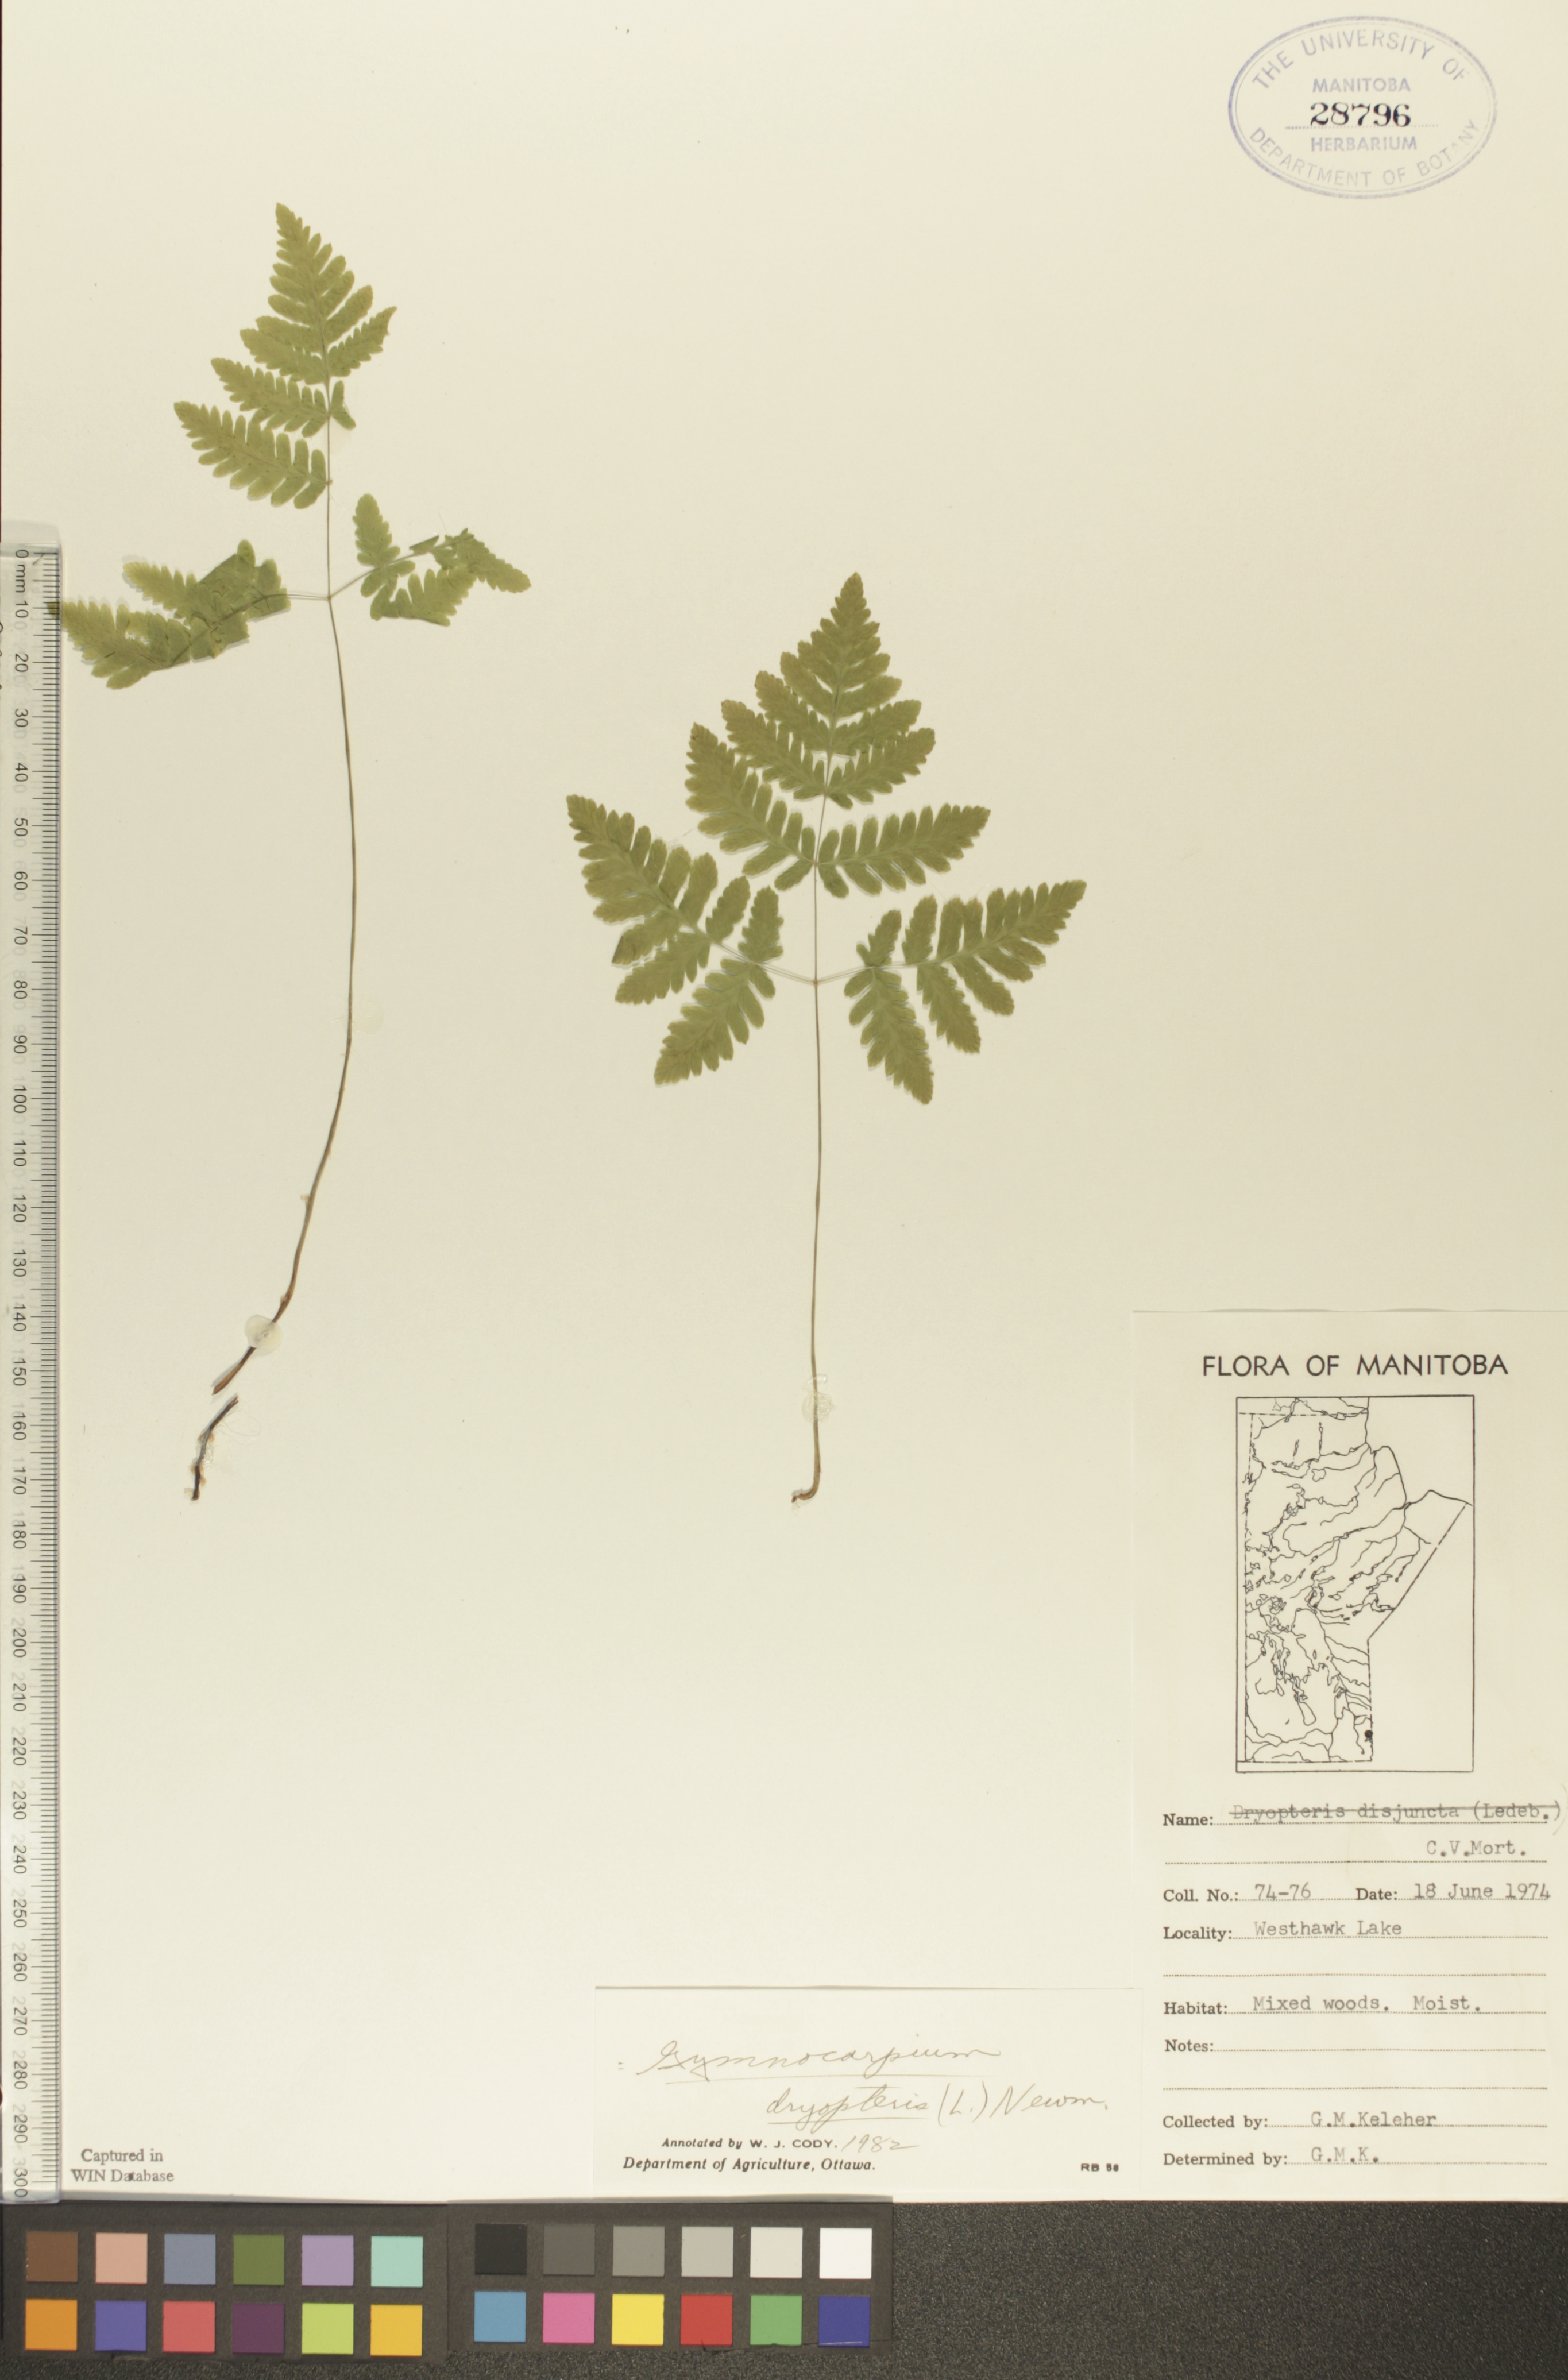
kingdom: Plantae
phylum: Tracheophyta
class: Polypodiopsida
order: Polypodiales
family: Cystopteridaceae
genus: Gymnocarpium
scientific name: Gymnocarpium dryopteris
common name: Oak fern
